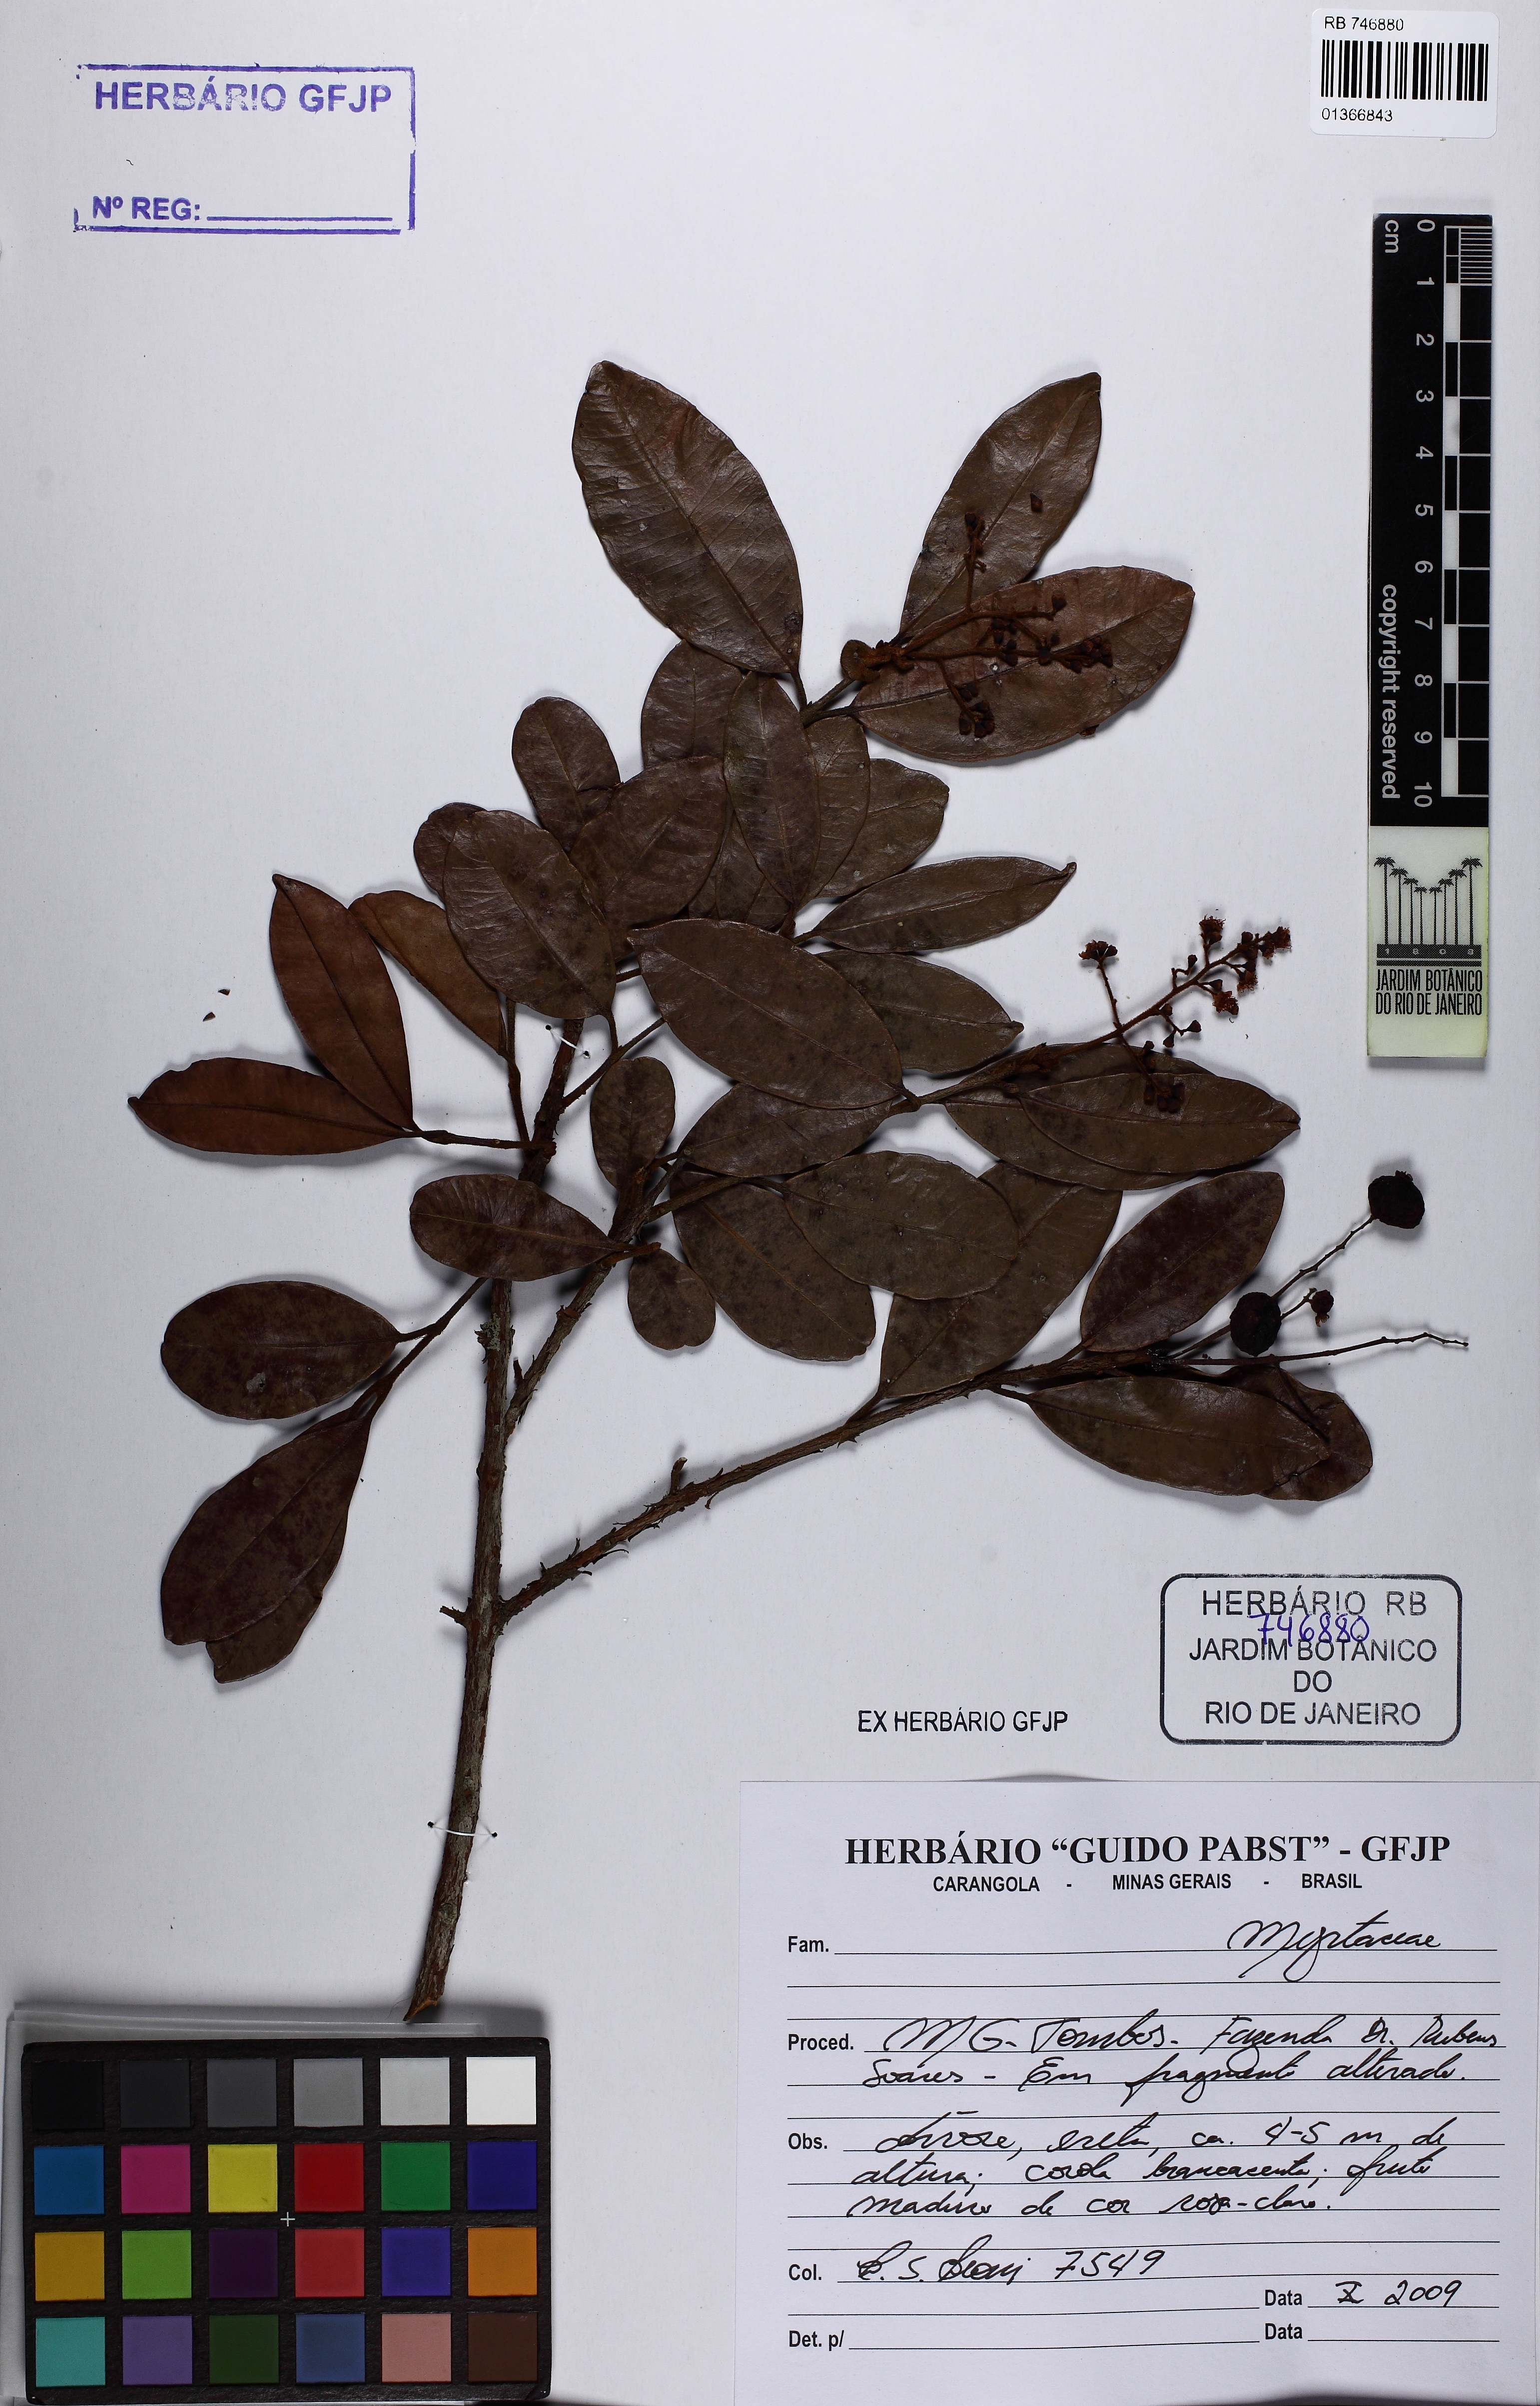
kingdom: Plantae
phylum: Tracheophyta
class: Magnoliopsida
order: Myrtales
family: Myrtaceae
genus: Myrcia
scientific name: Myrcia rufipes
